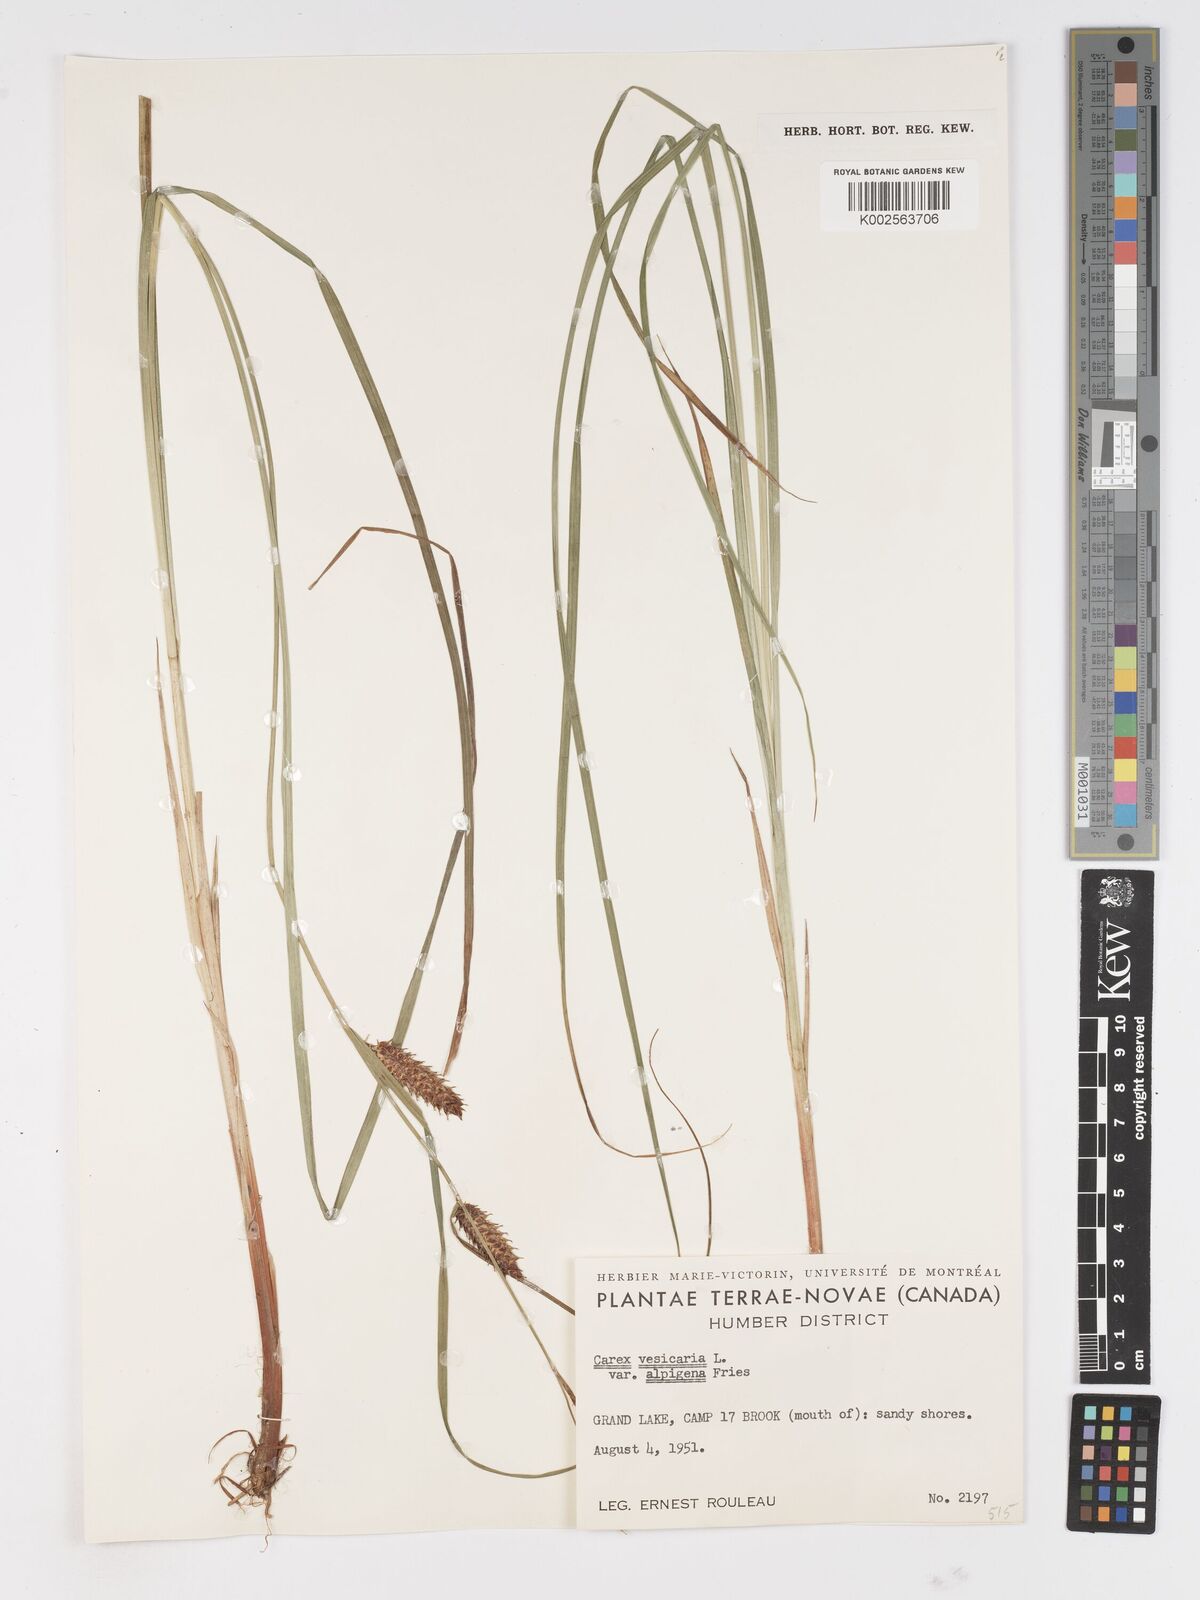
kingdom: Plantae
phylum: Tracheophyta
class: Liliopsida
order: Poales
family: Cyperaceae
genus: Carex
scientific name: Carex vesicaria
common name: Bladder-sedge
